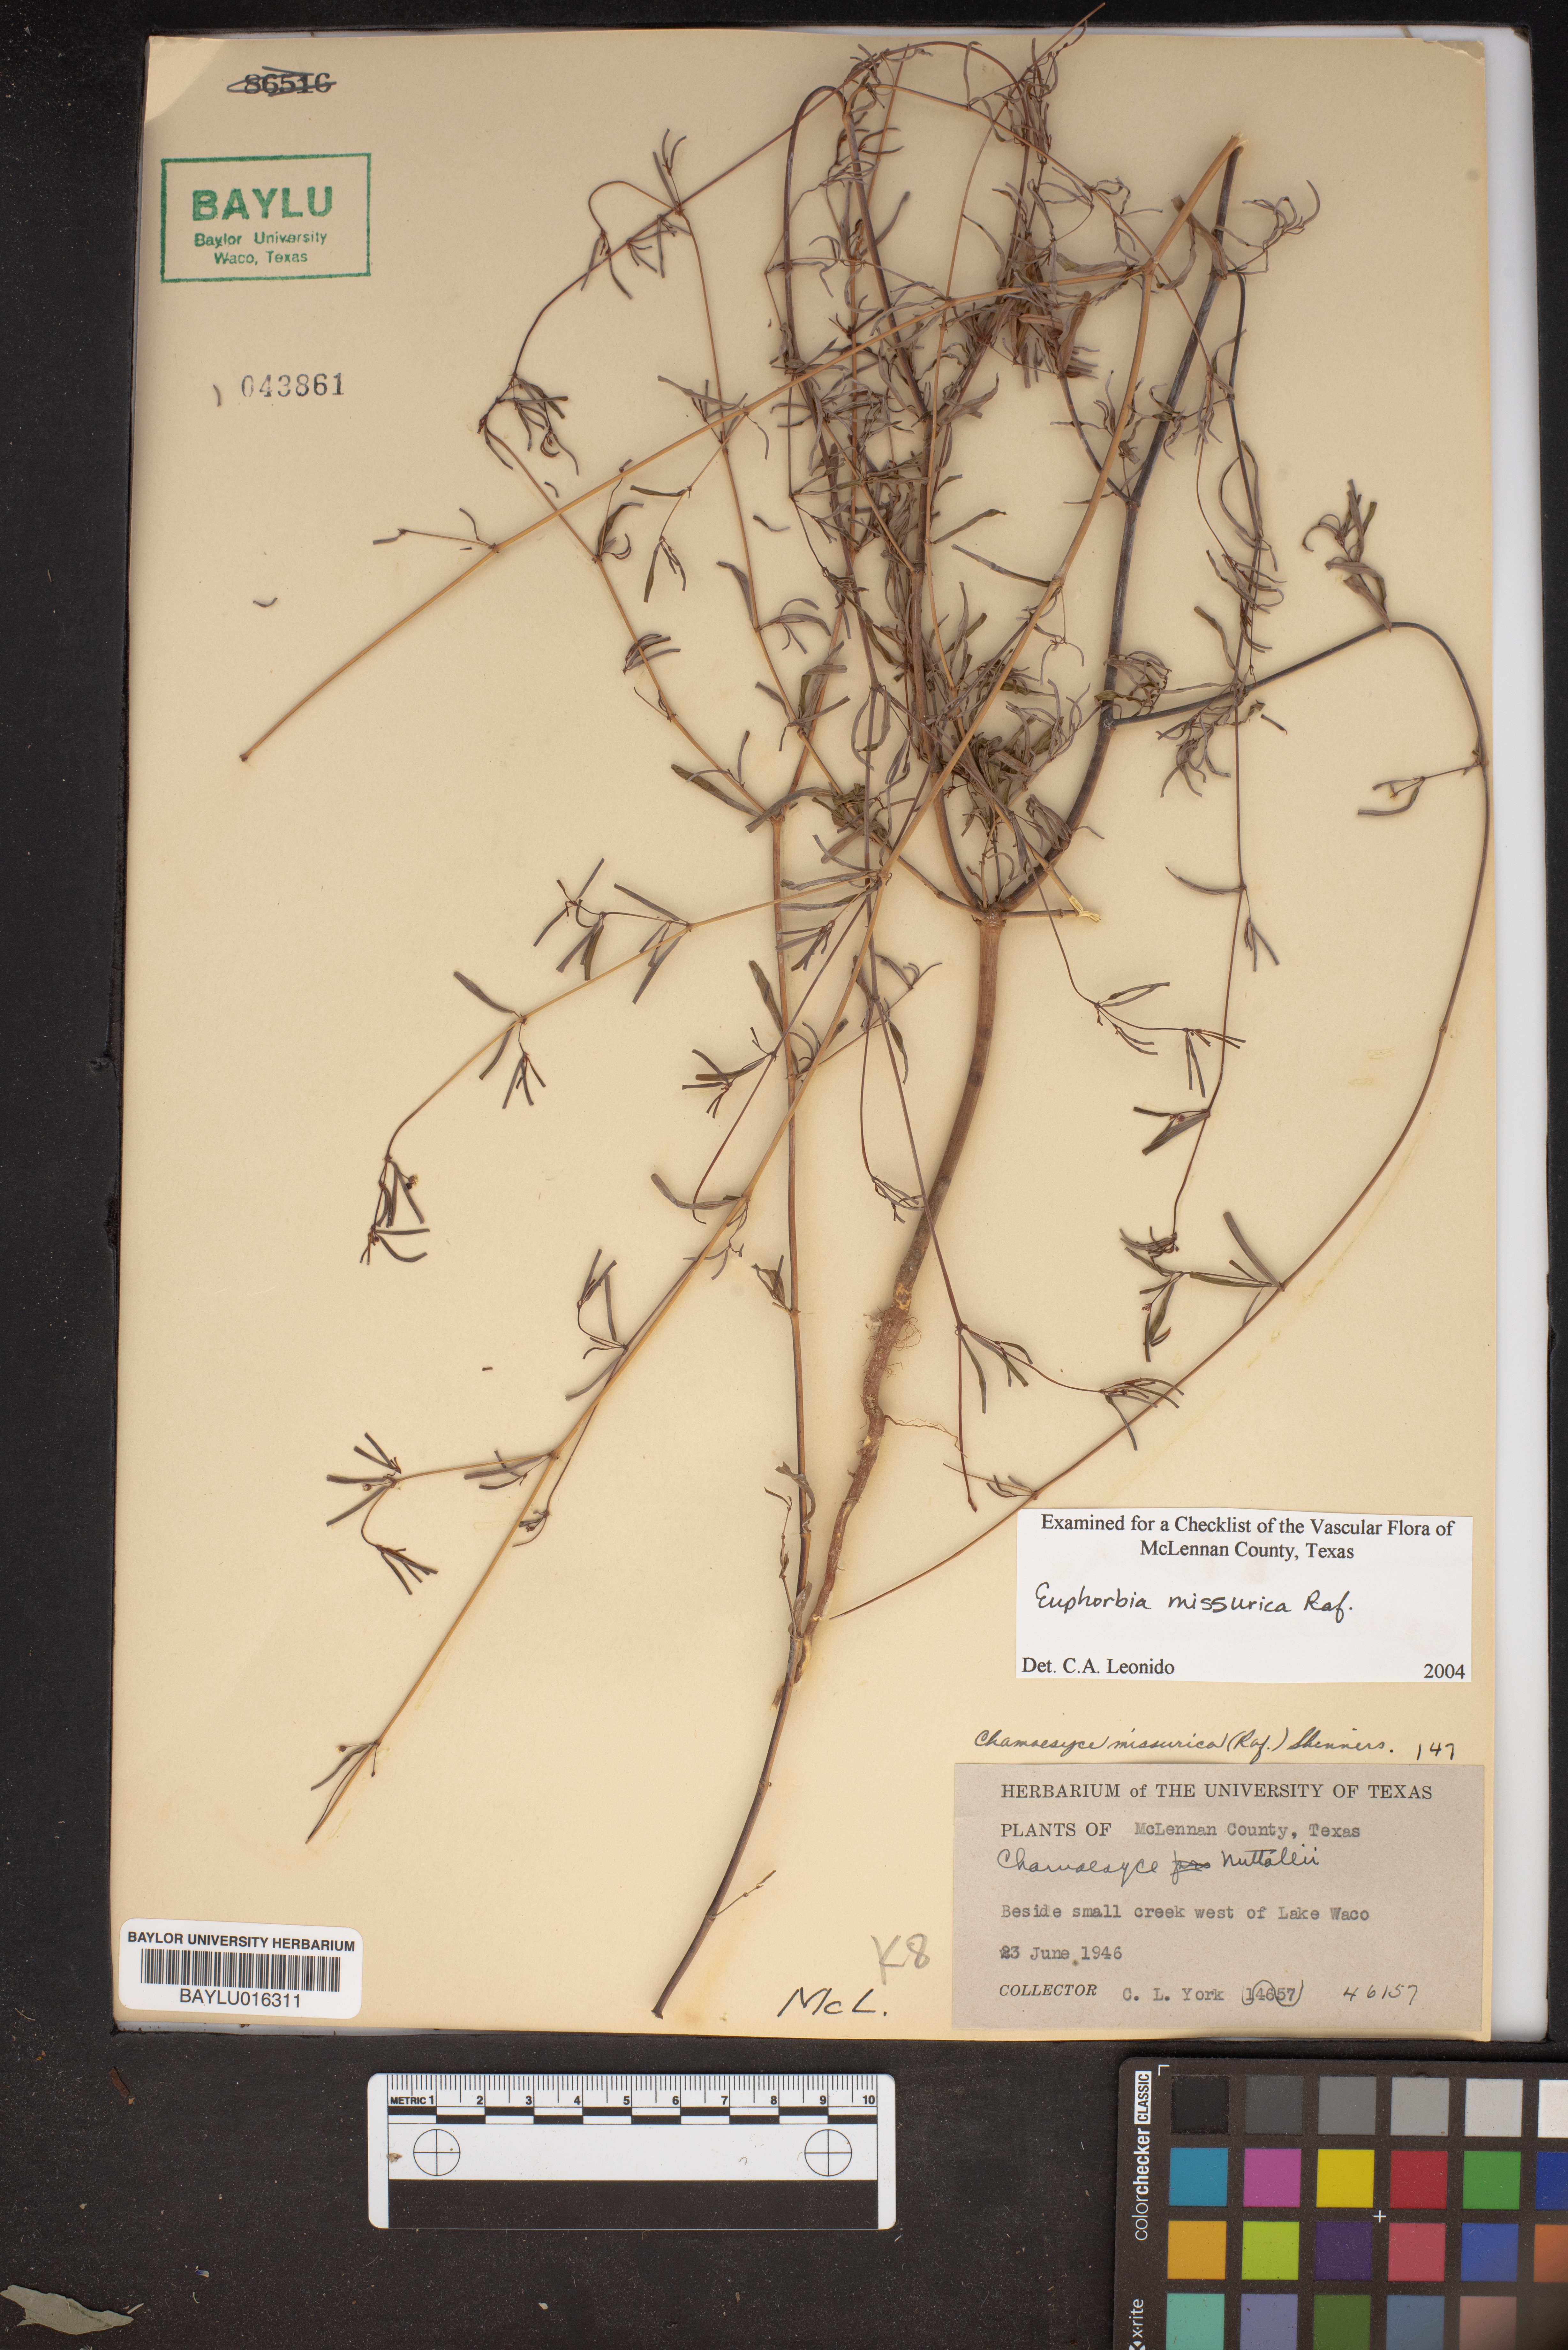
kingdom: Plantae
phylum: Tracheophyta
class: Magnoliopsida
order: Malpighiales
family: Euphorbiaceae
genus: Euphorbia
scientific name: Euphorbia missurica
